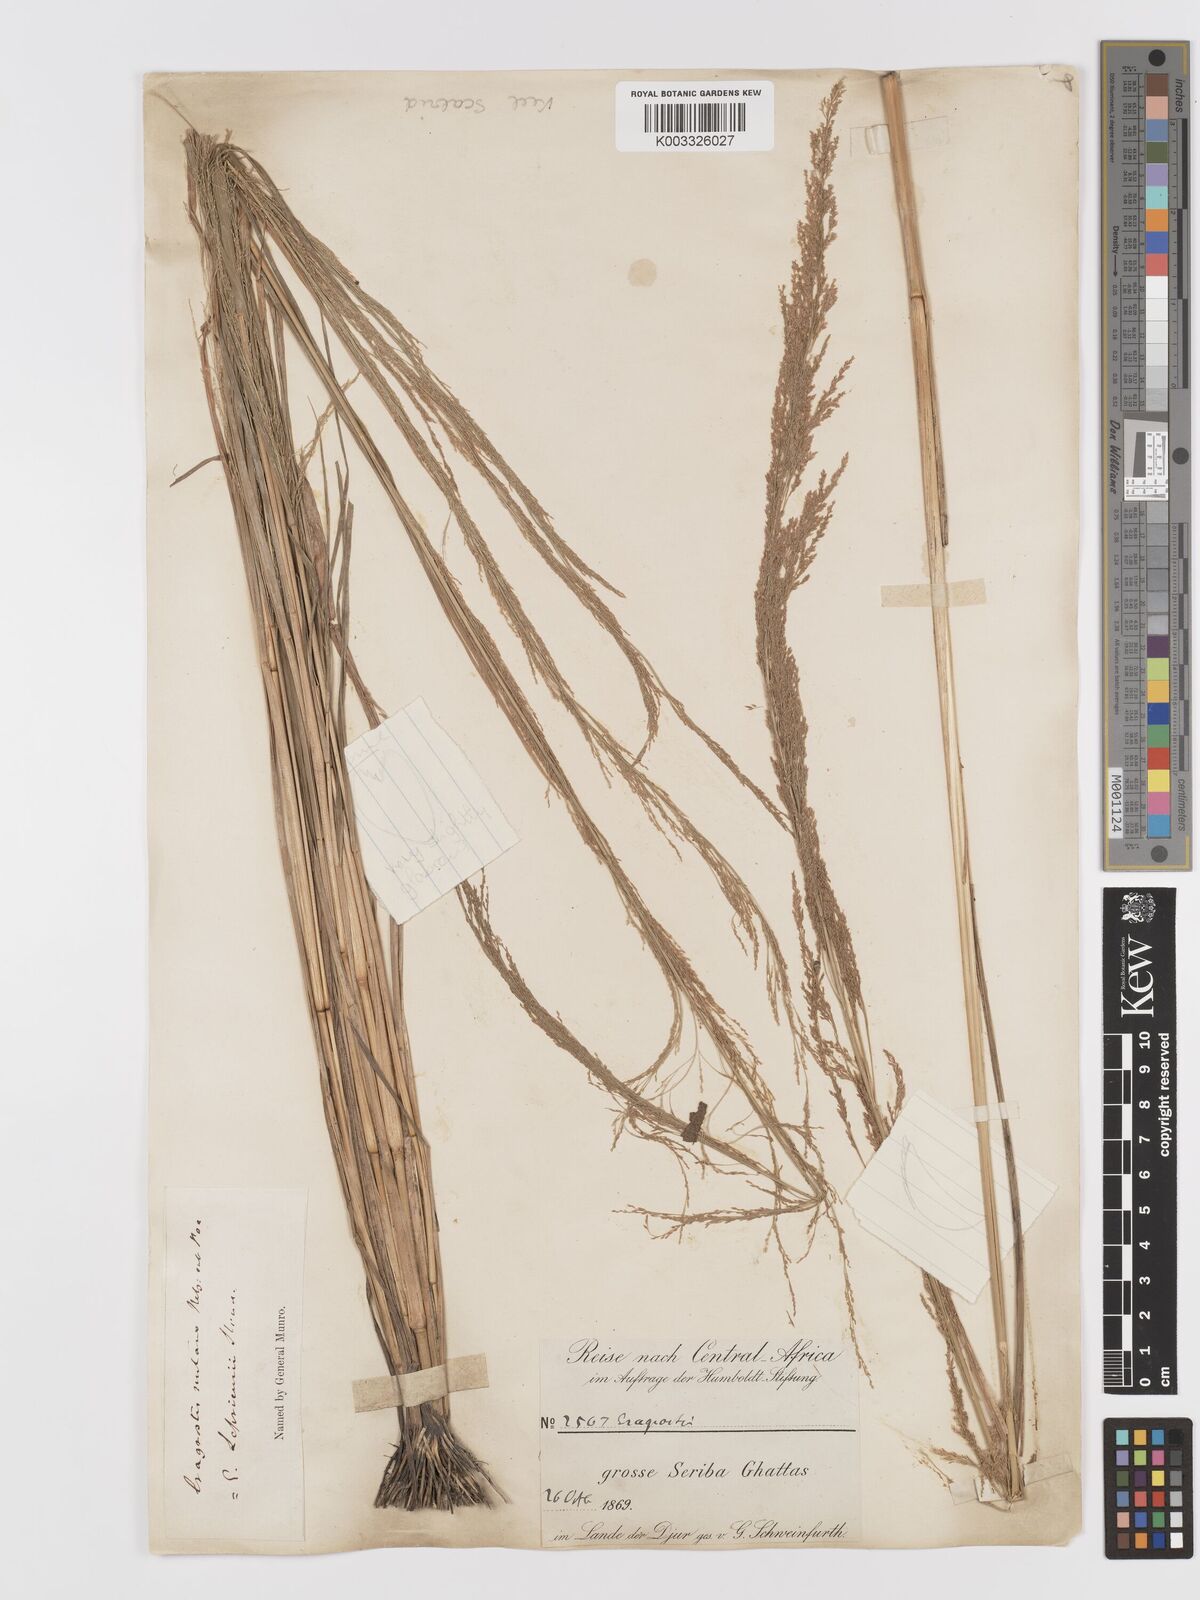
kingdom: Plantae
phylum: Tracheophyta
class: Liliopsida
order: Poales
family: Poaceae
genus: Eragrostis
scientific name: Eragrostis japonica
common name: Pond lovegrass
